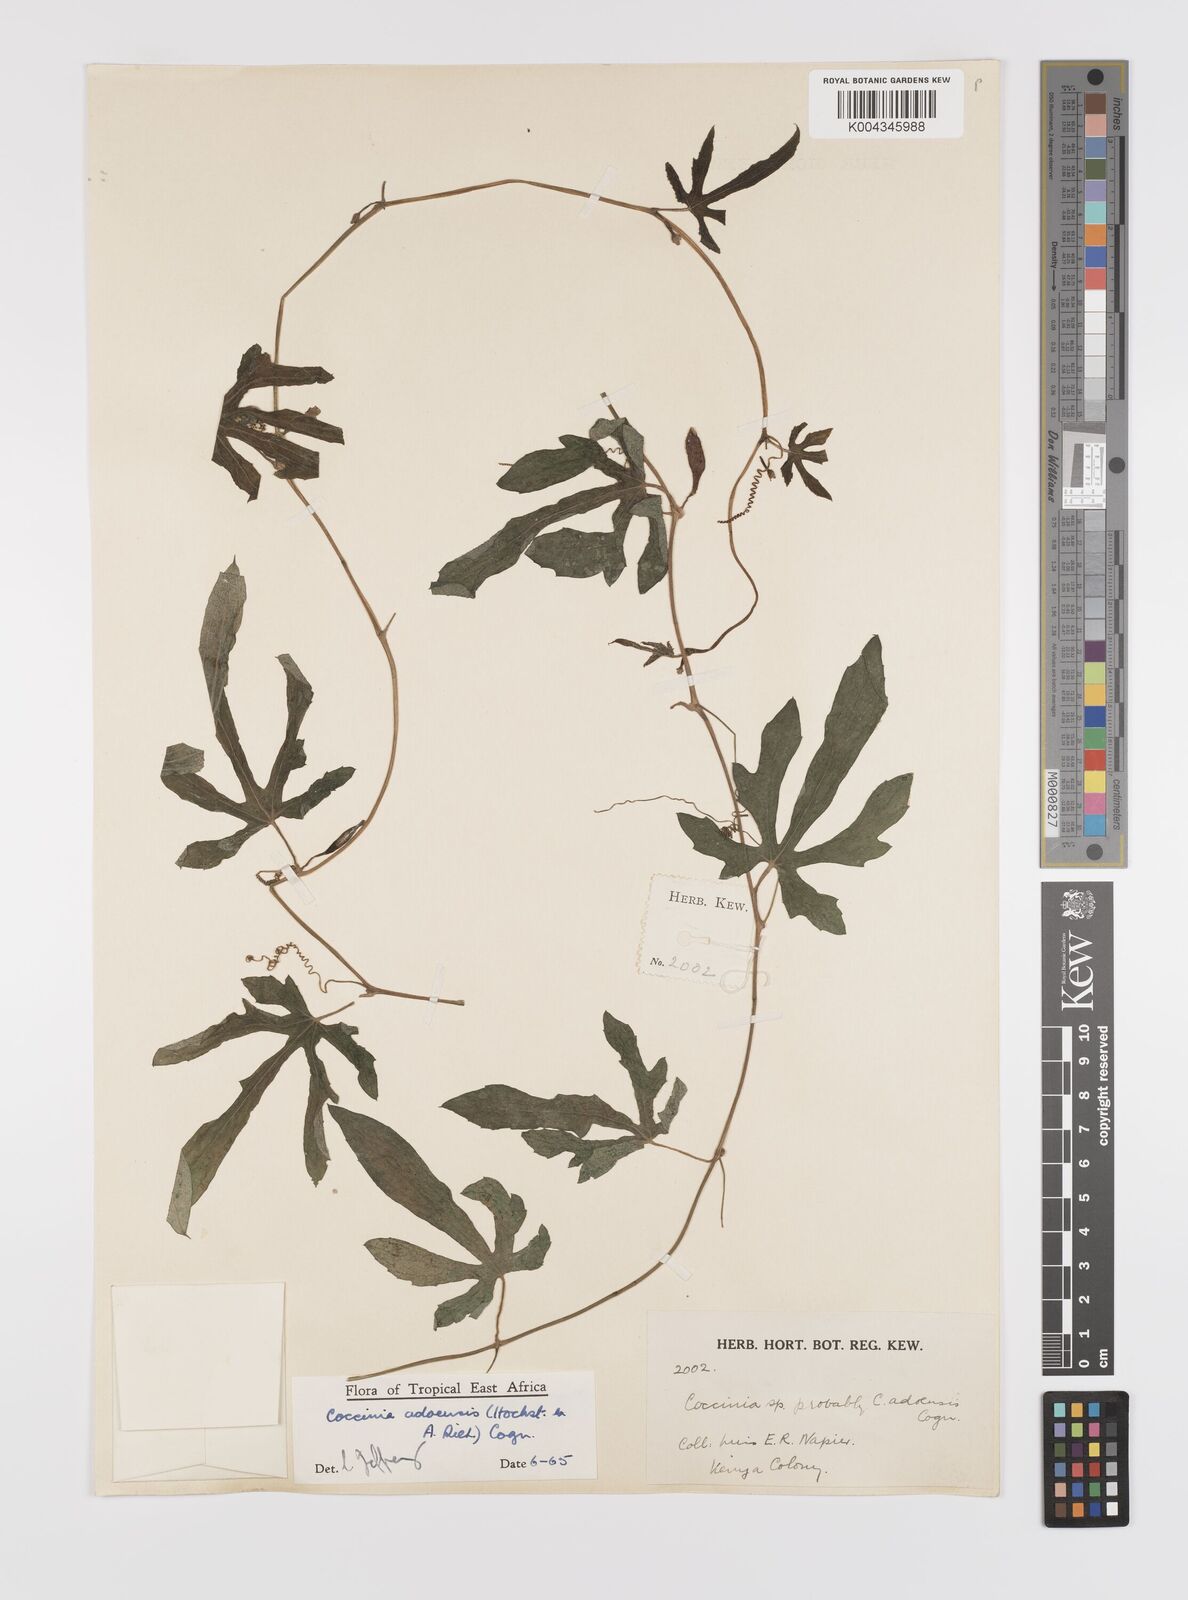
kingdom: Plantae
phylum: Tracheophyta
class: Magnoliopsida
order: Cucurbitales
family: Cucurbitaceae
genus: Coccinia
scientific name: Coccinia adoensis
